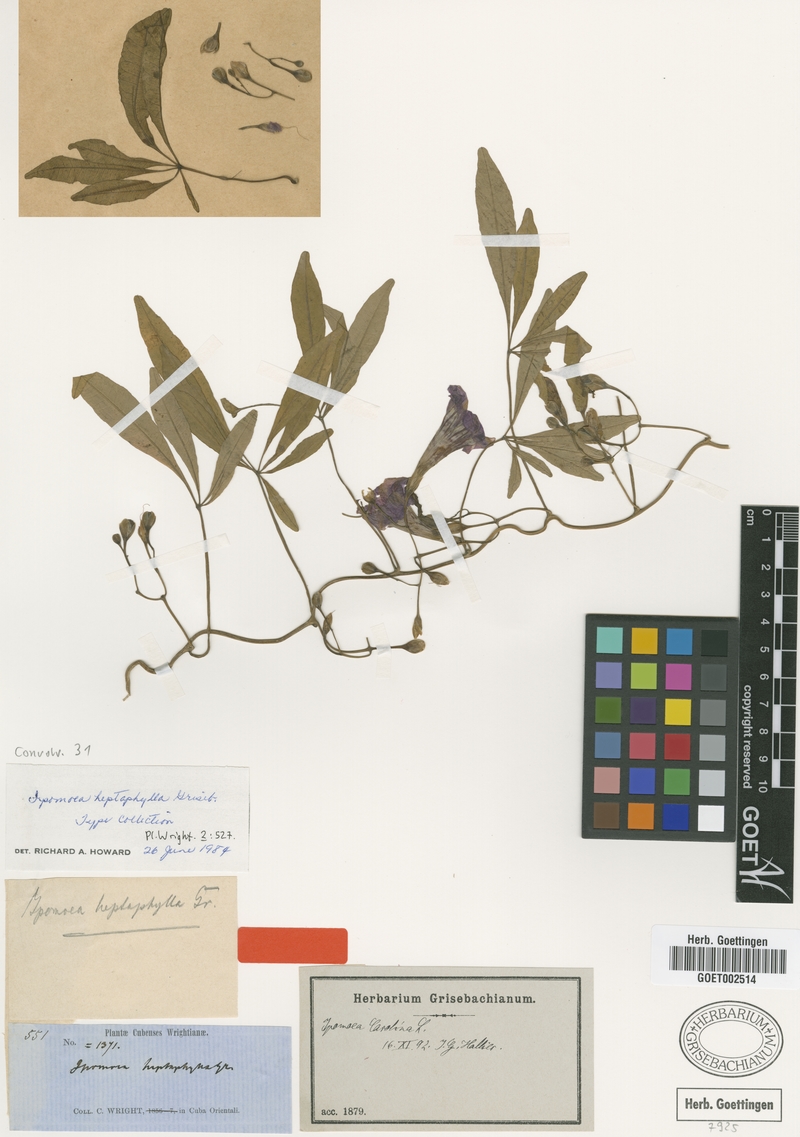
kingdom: Plantae
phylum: Tracheophyta
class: Magnoliopsida
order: Solanales
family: Convolvulaceae
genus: Ipomoea
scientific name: Ipomoea carolina
